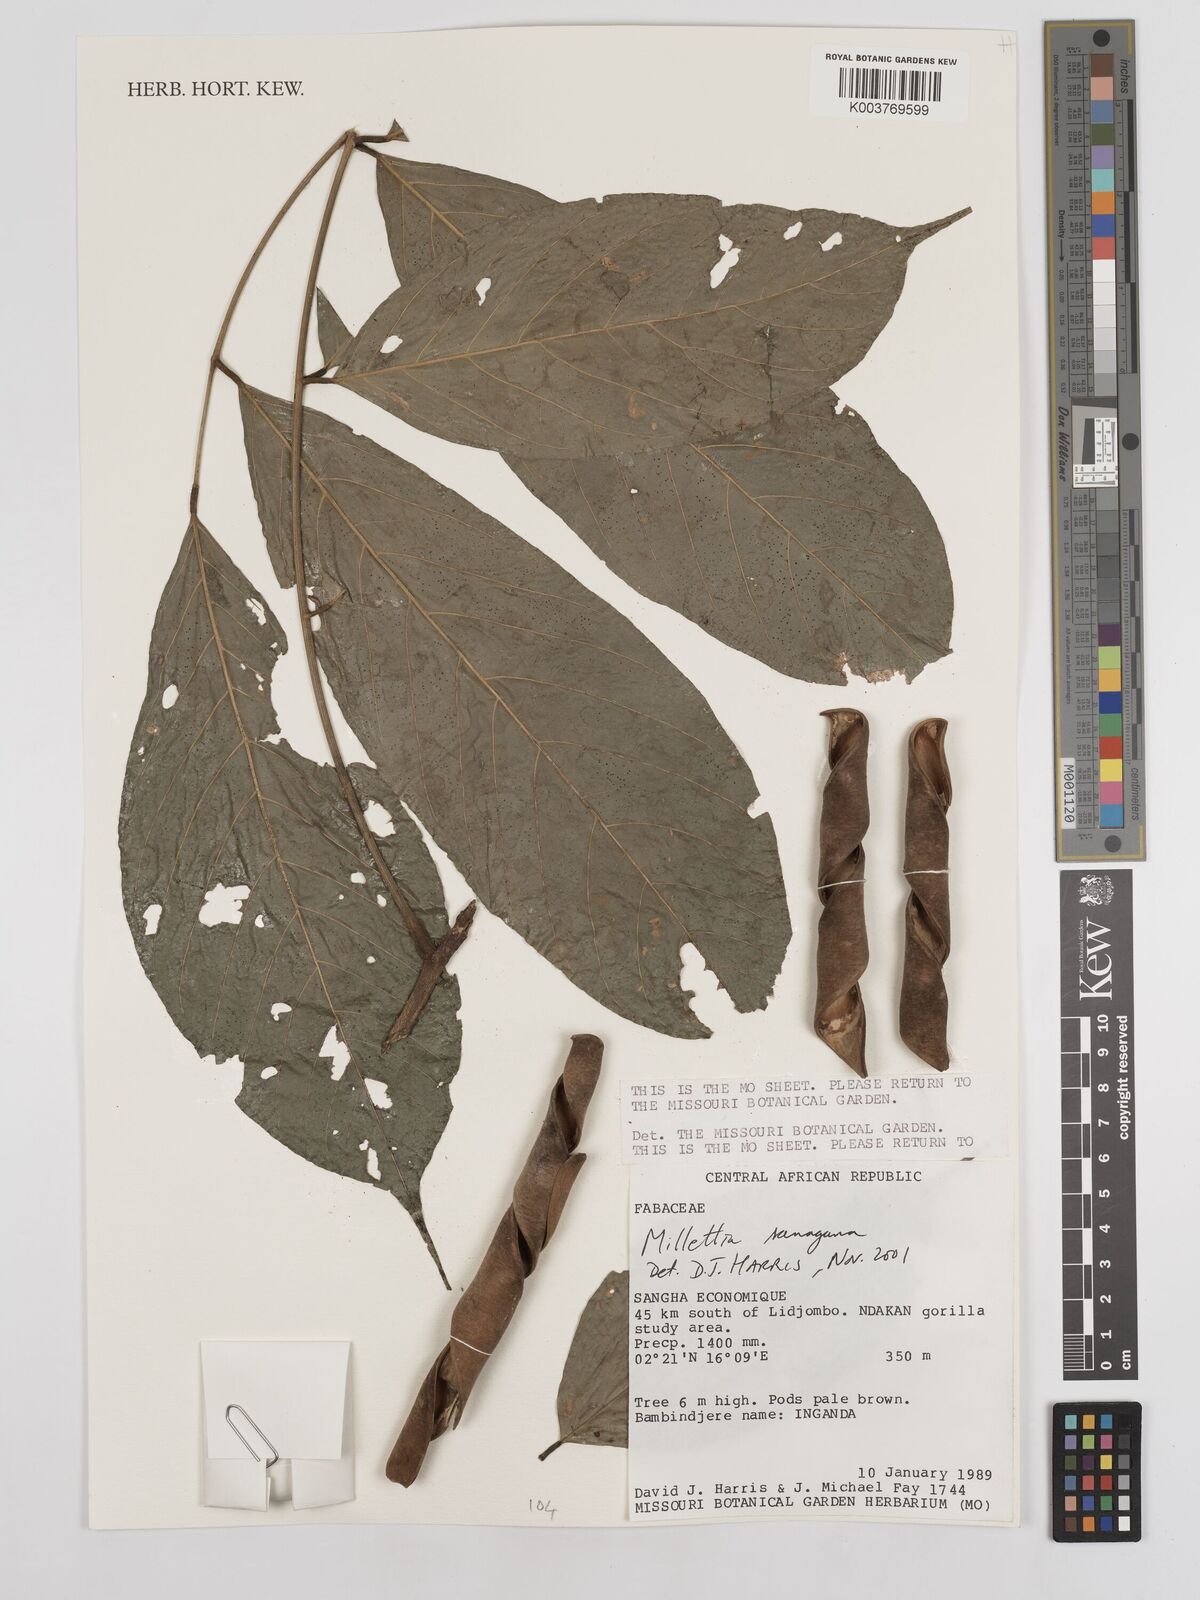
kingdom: Plantae
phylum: Tracheophyta
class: Magnoliopsida
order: Fabales
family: Fabaceae
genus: Millettia
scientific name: Millettia sanagana
